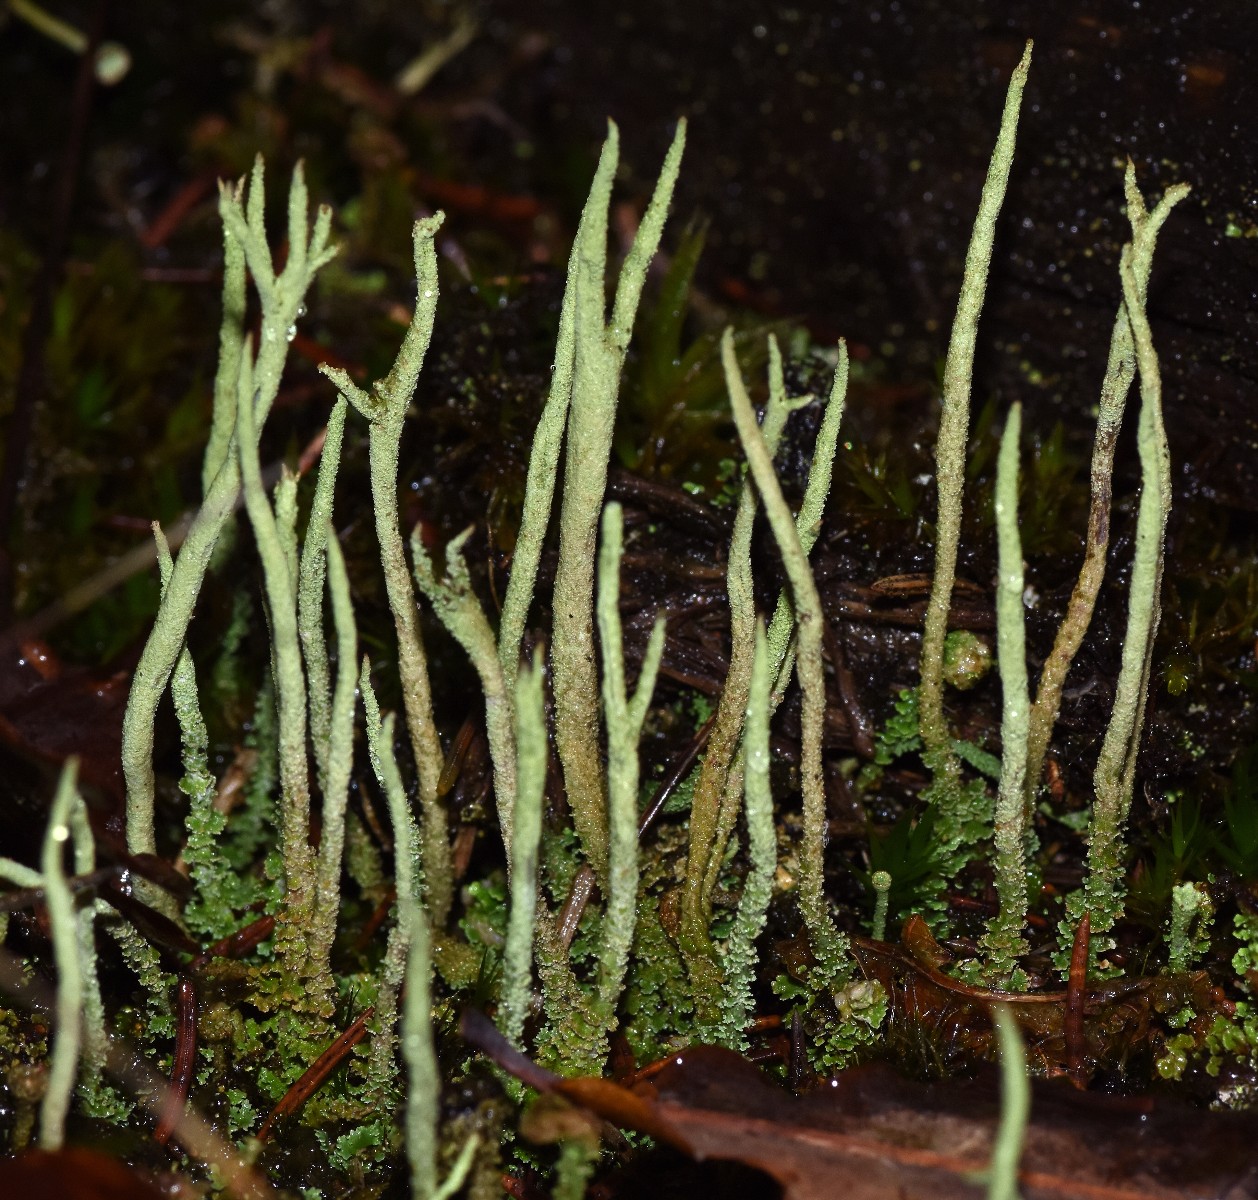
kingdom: Fungi
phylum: Ascomycota
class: Lecanoromycetes
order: Lecanorales
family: Cladoniaceae
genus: Cladonia
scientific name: Cladonia glauca
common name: grågrøn bægerlav
